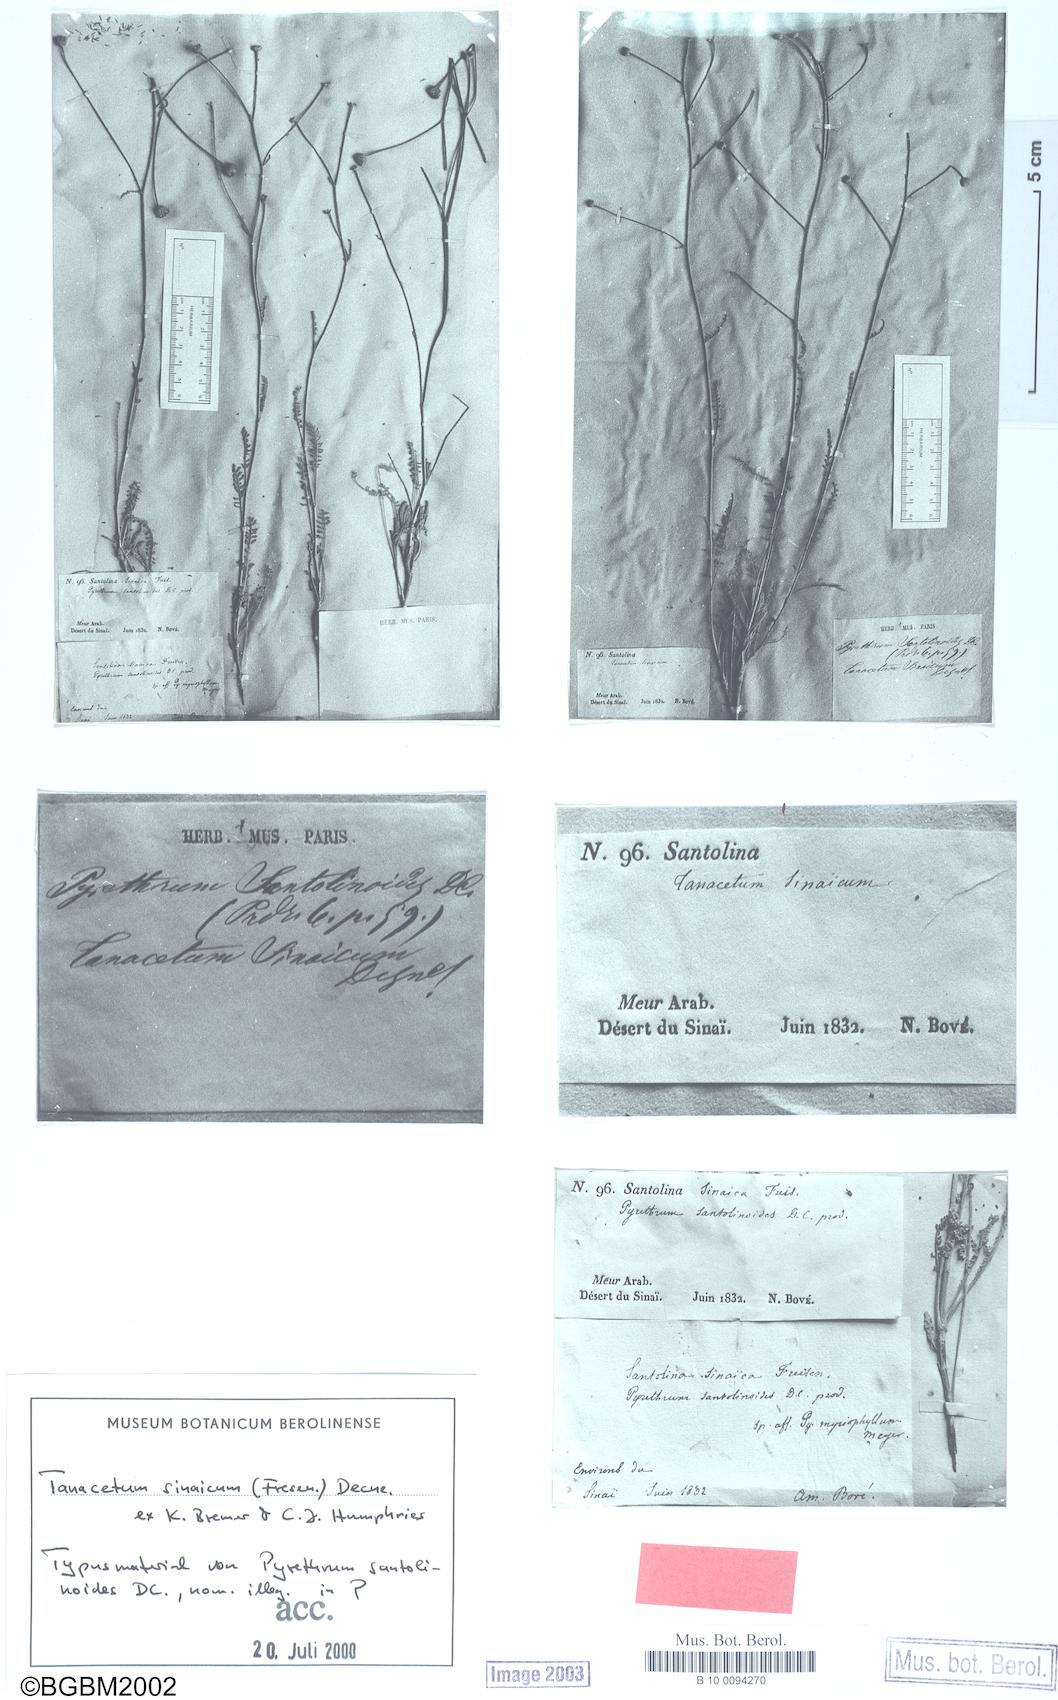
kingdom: Plantae
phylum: Tracheophyta
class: Magnoliopsida
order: Asterales
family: Asteraceae
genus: Tanacetum
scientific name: Tanacetum sinaicum
